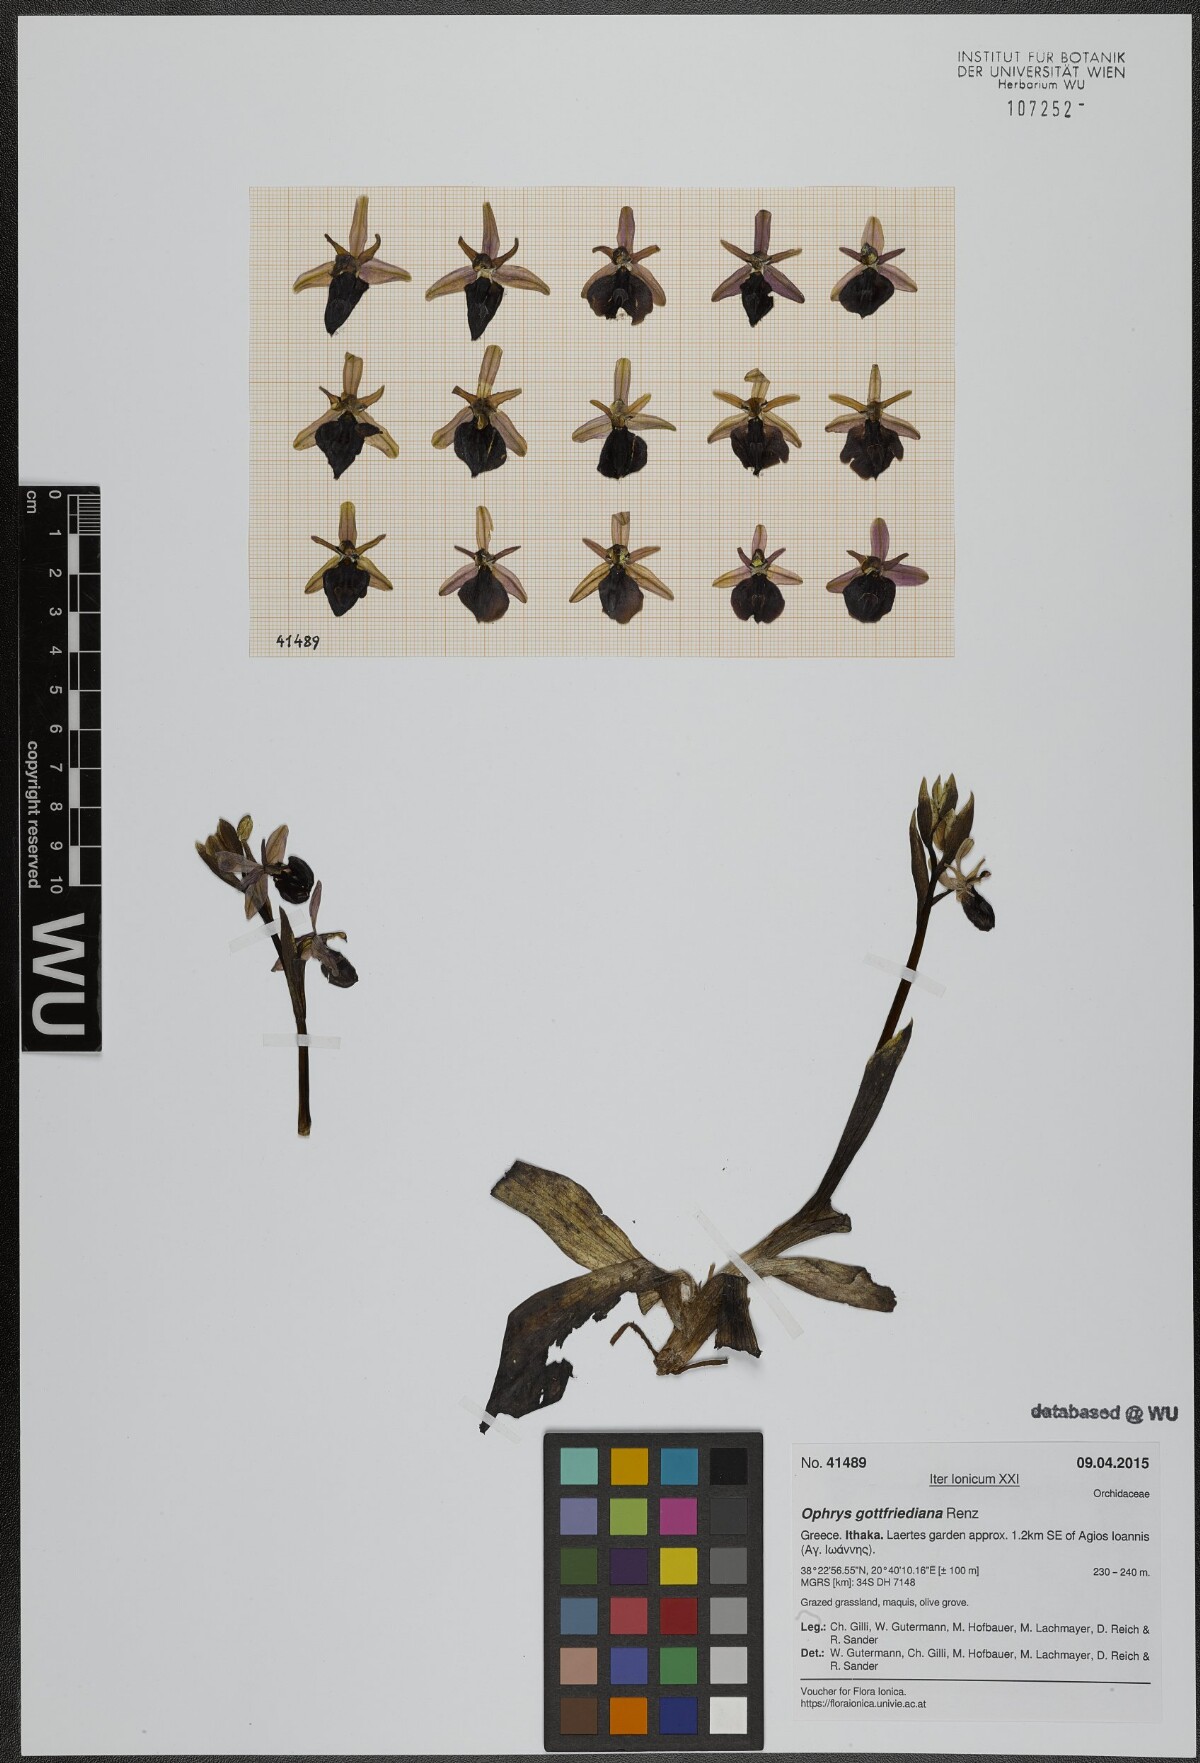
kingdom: Plantae
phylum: Tracheophyta
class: Liliopsida
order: Asparagales
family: Orchidaceae
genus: Ophrys
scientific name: Ophrys ferrum-equinum
